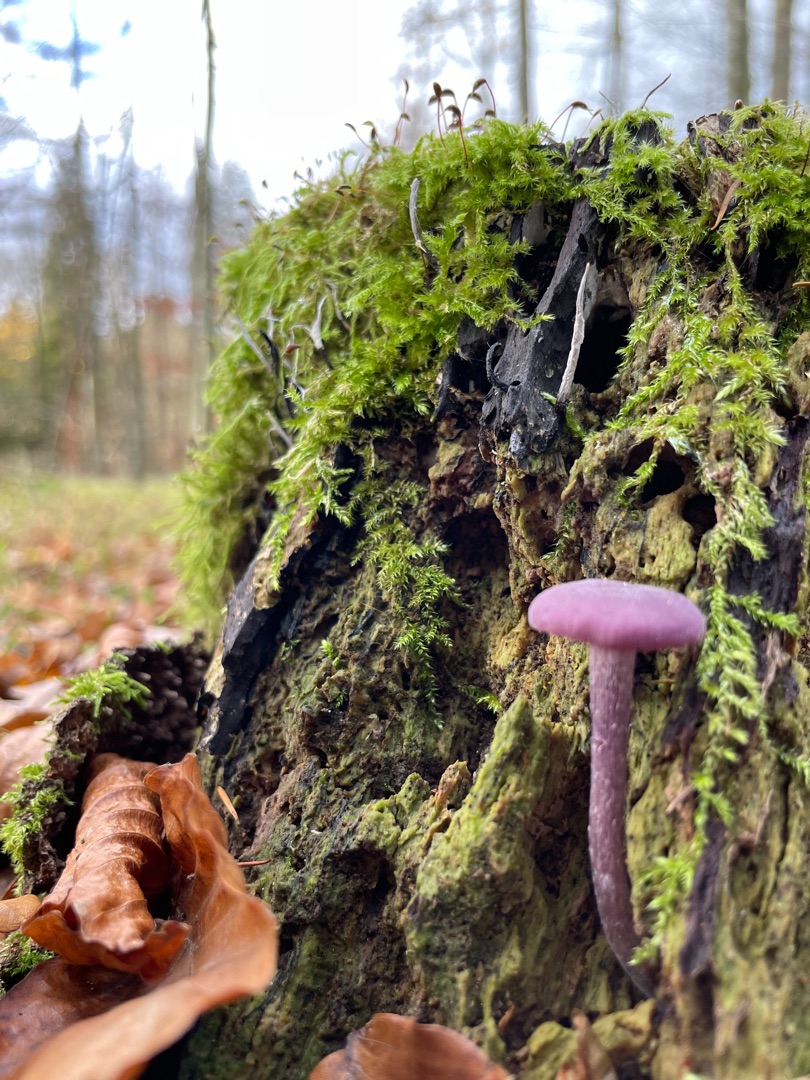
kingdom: Fungi
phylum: Basidiomycota
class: Agaricomycetes
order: Agaricales
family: Hydnangiaceae
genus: Laccaria
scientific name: Laccaria amethystina
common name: Violet ametysthat
